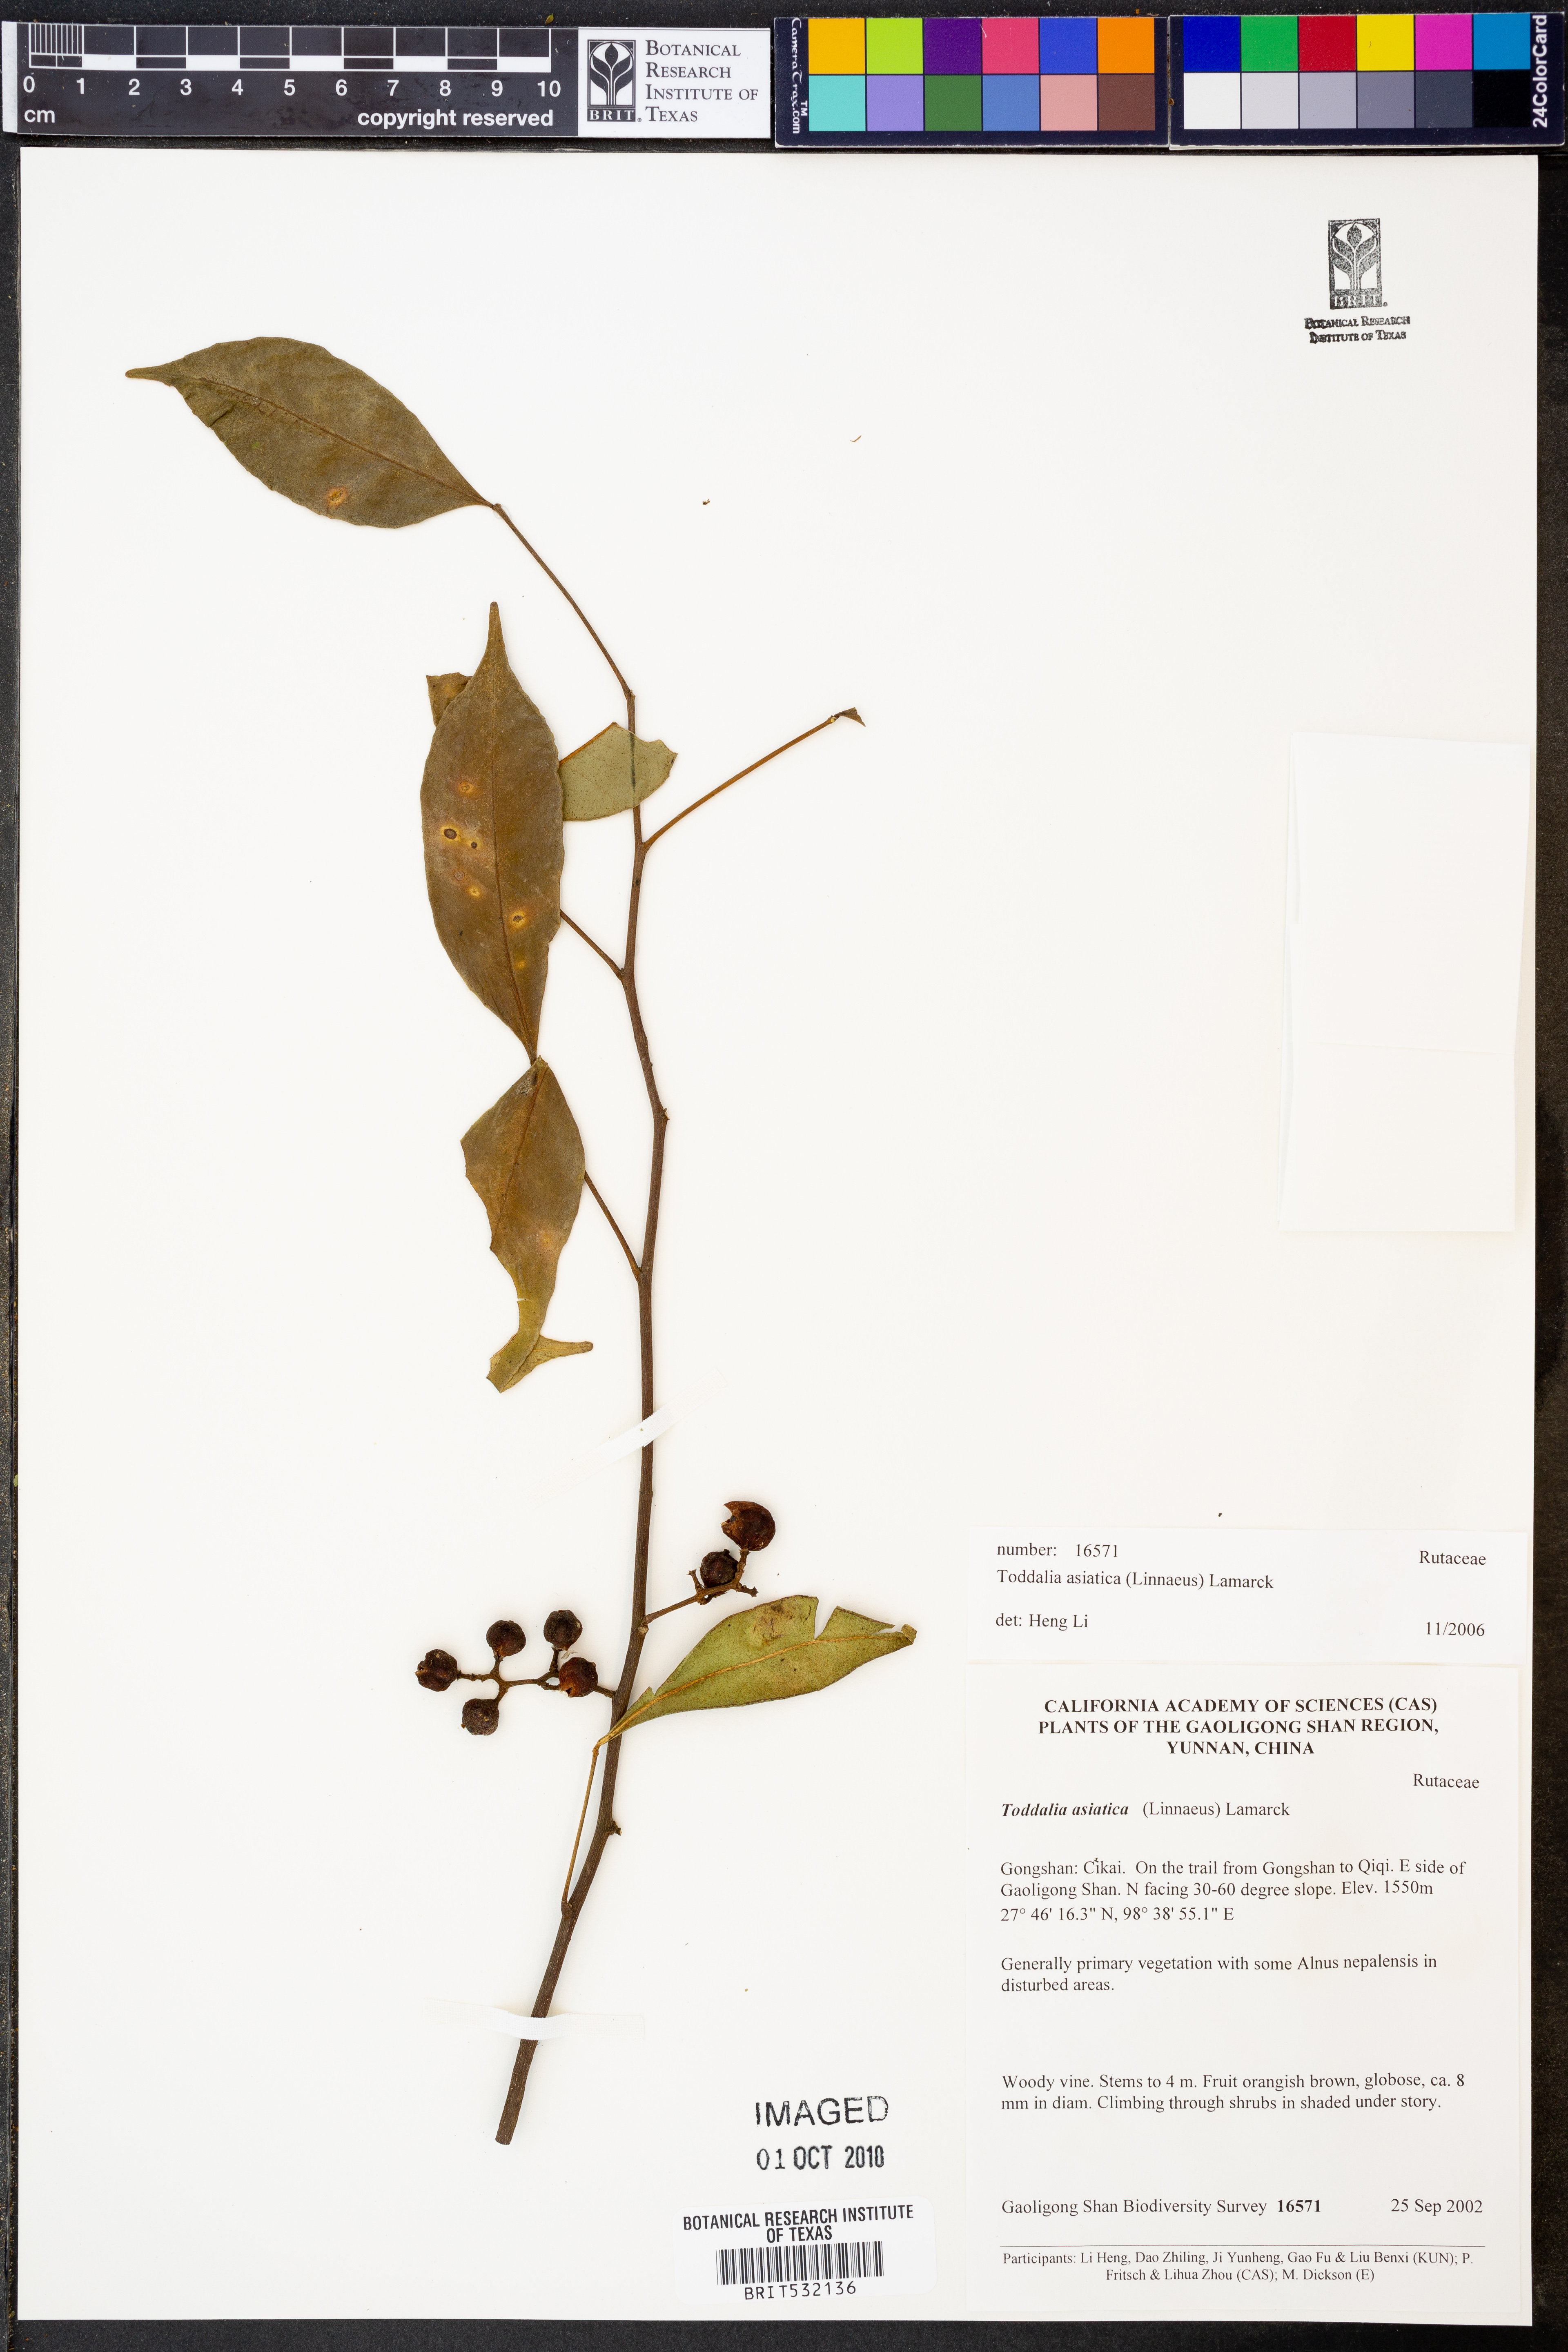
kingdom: Plantae
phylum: Tracheophyta
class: Magnoliopsida
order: Sapindales
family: Rutaceae
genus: Zanthoxylum
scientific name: Zanthoxylum asiaticum
